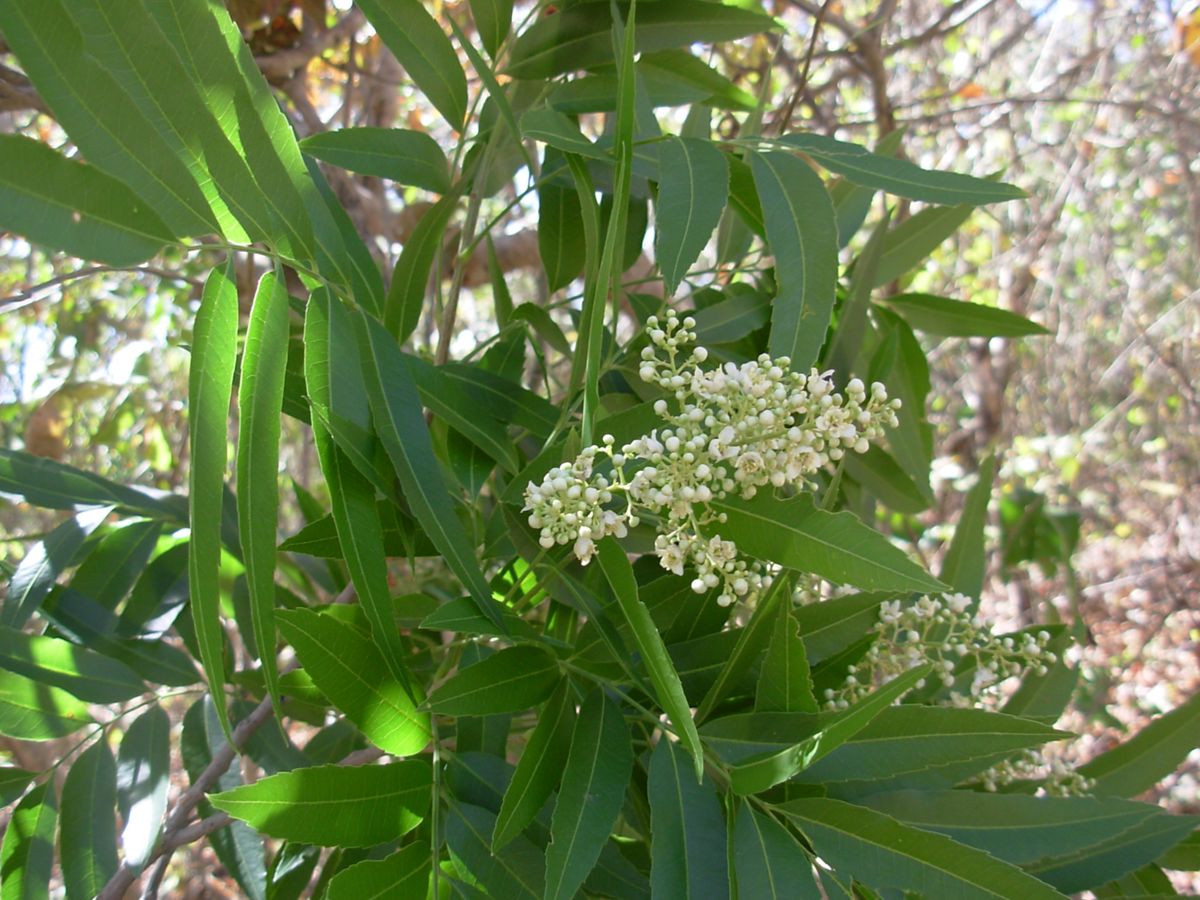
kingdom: Plantae
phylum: Tracheophyta
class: Magnoliopsida
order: Sapindales
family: Sapindaceae
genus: Thouinidium
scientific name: Thouinidium decandrum
